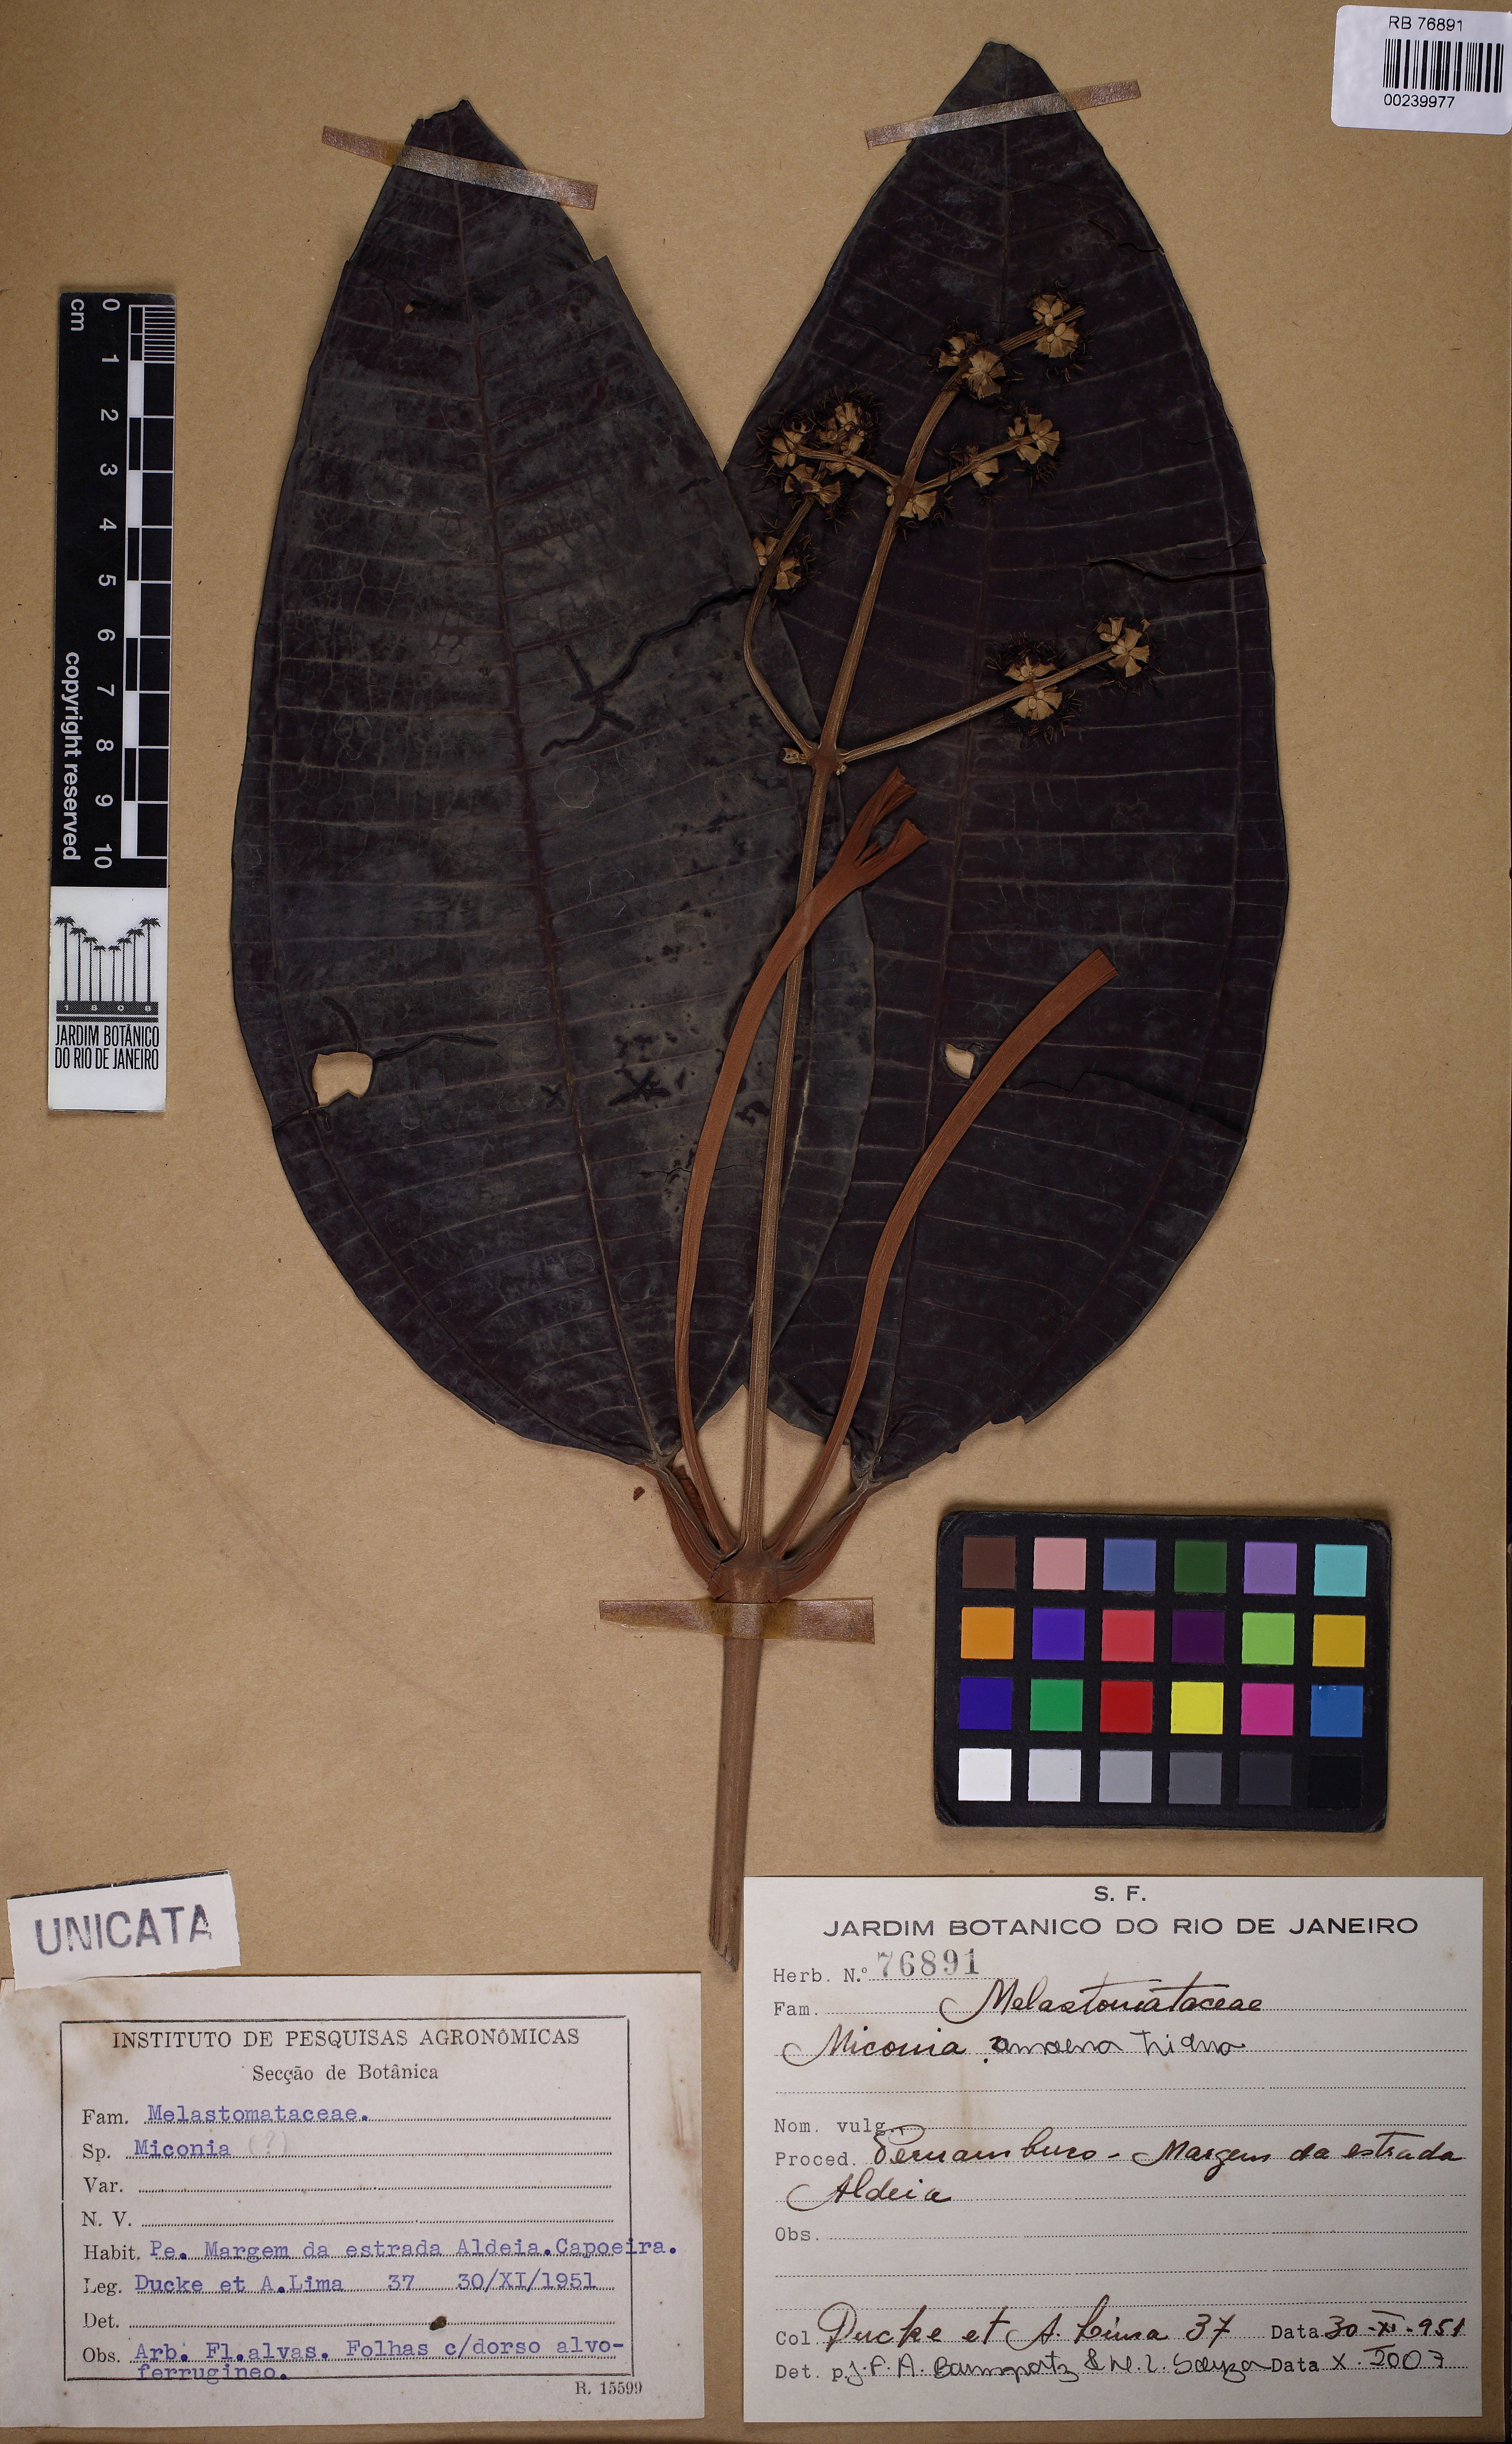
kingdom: Plantae
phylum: Tracheophyta
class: Magnoliopsida
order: Myrtales
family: Melastomataceae
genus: Miconia
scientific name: Miconia
